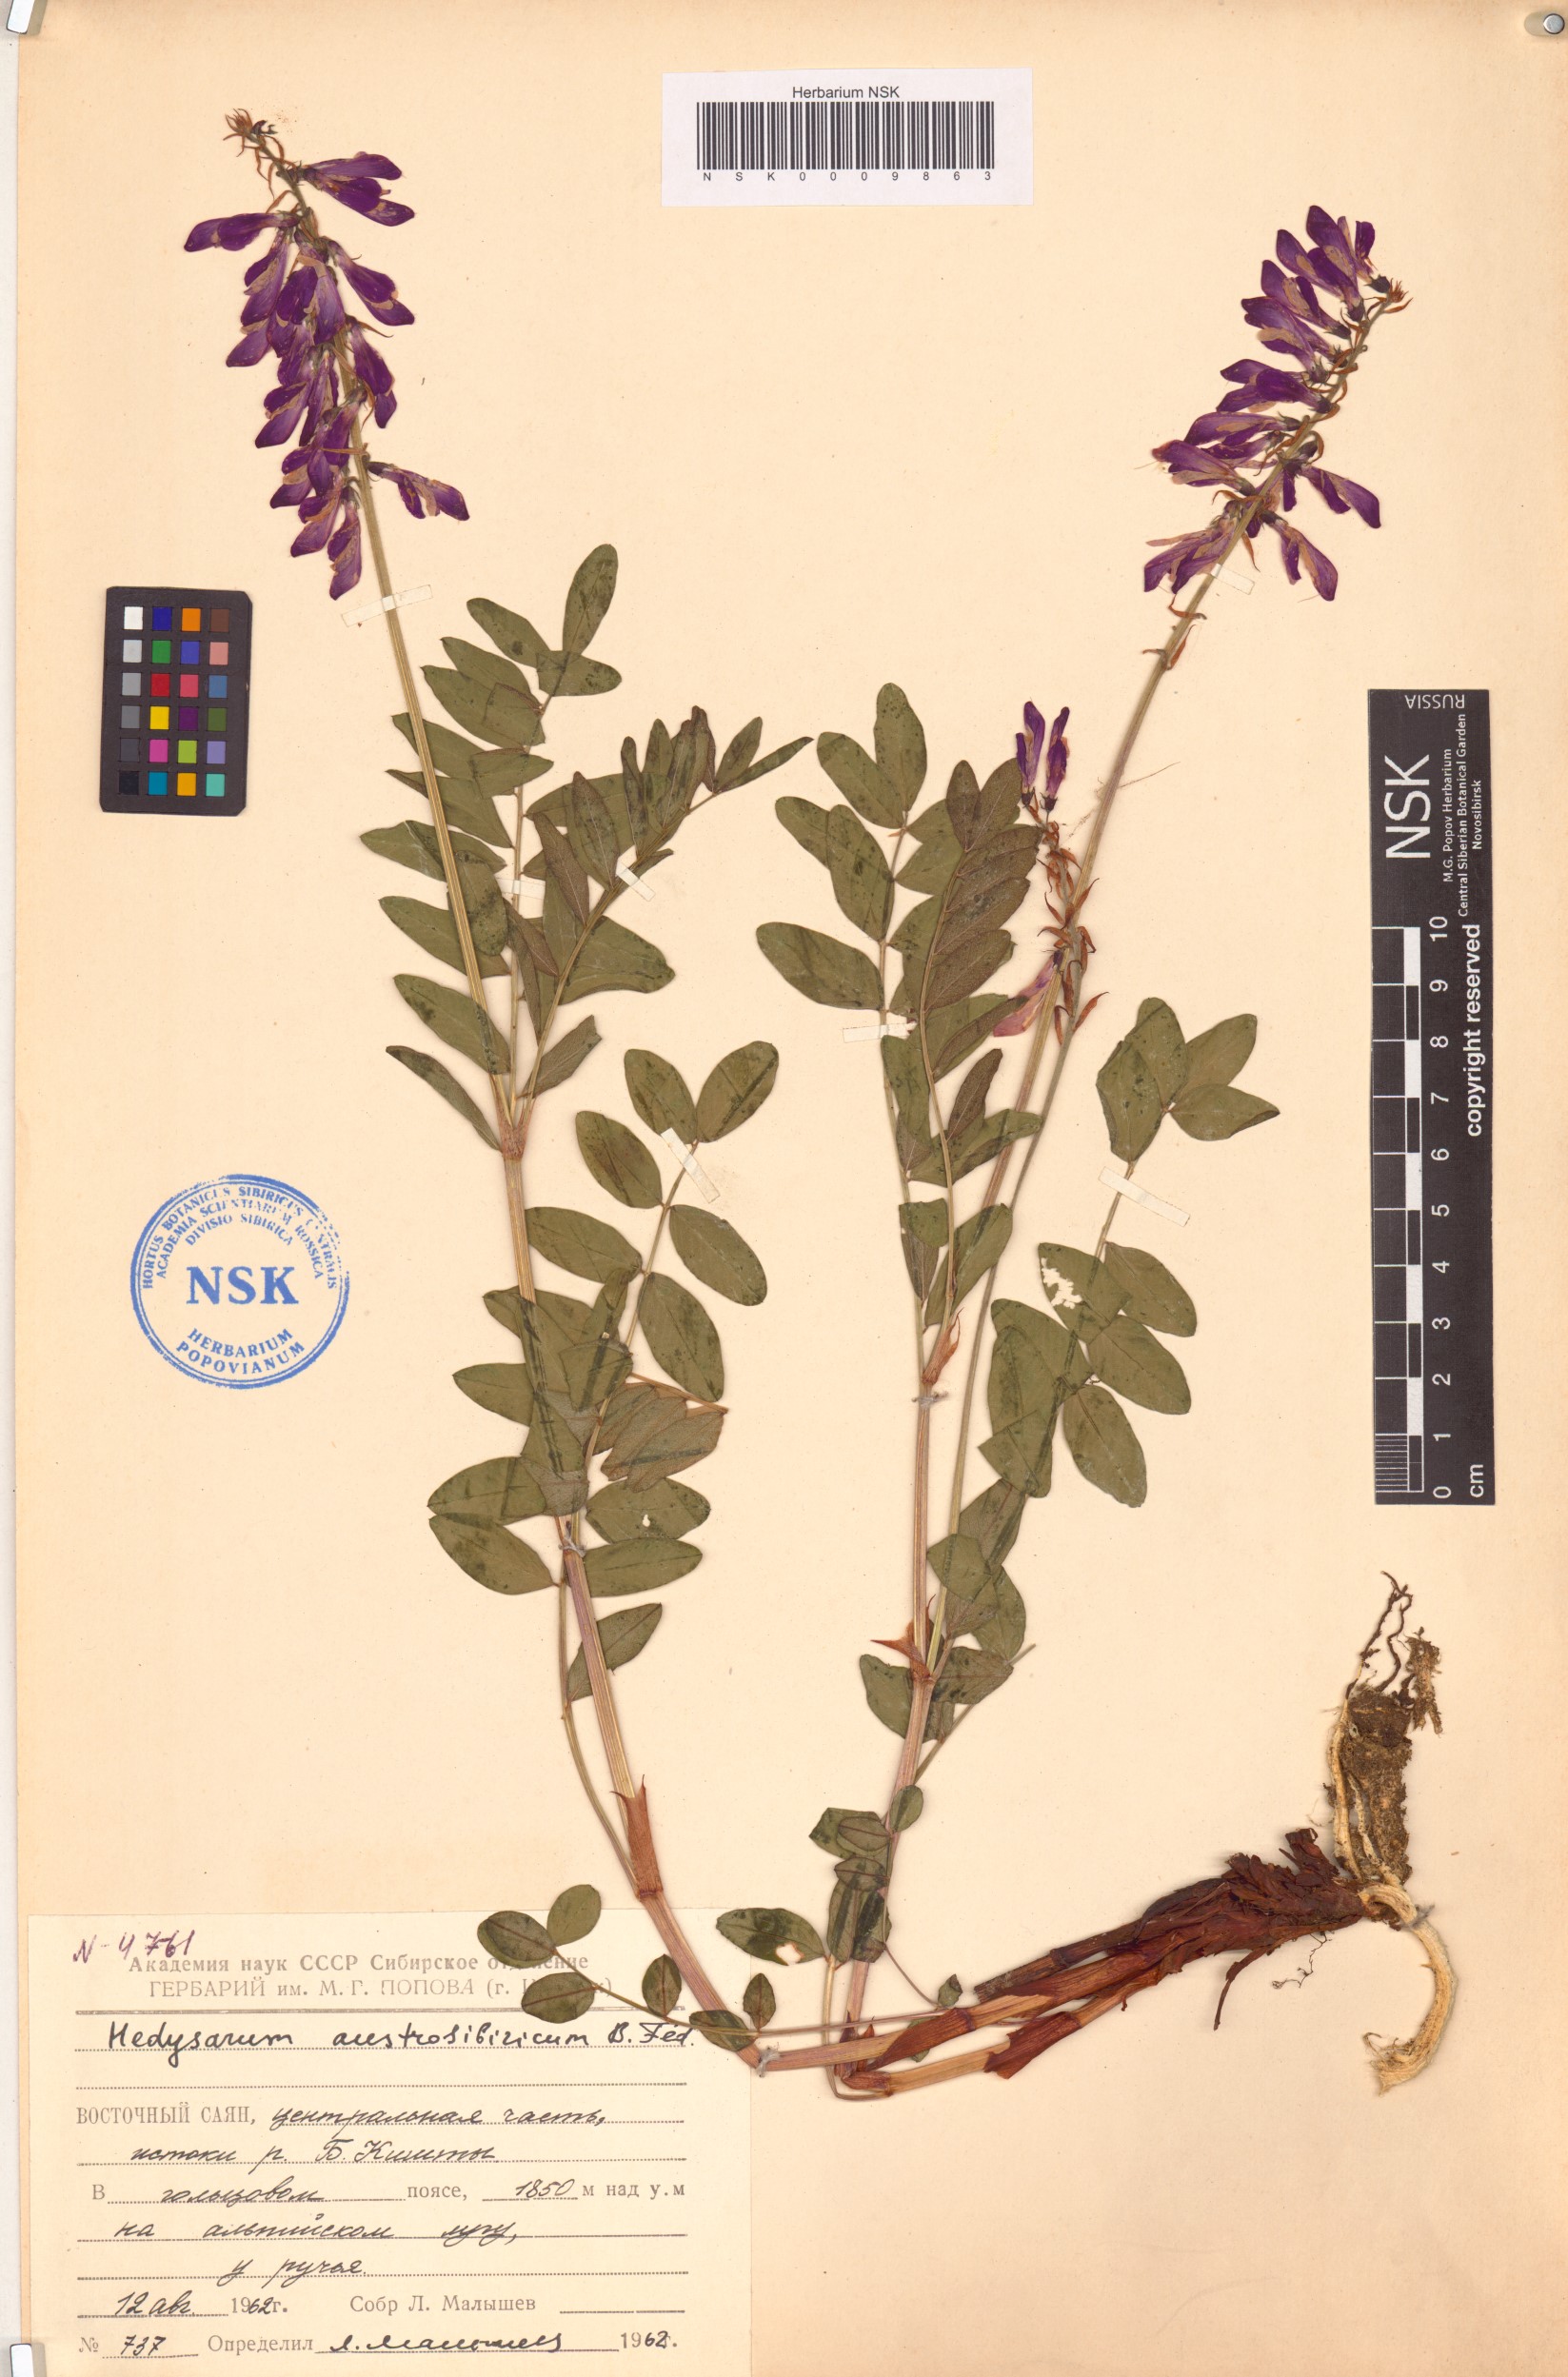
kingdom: Plantae
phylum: Tracheophyta
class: Magnoliopsida
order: Fabales
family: Fabaceae
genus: Hedysarum
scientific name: Hedysarum neglectum
